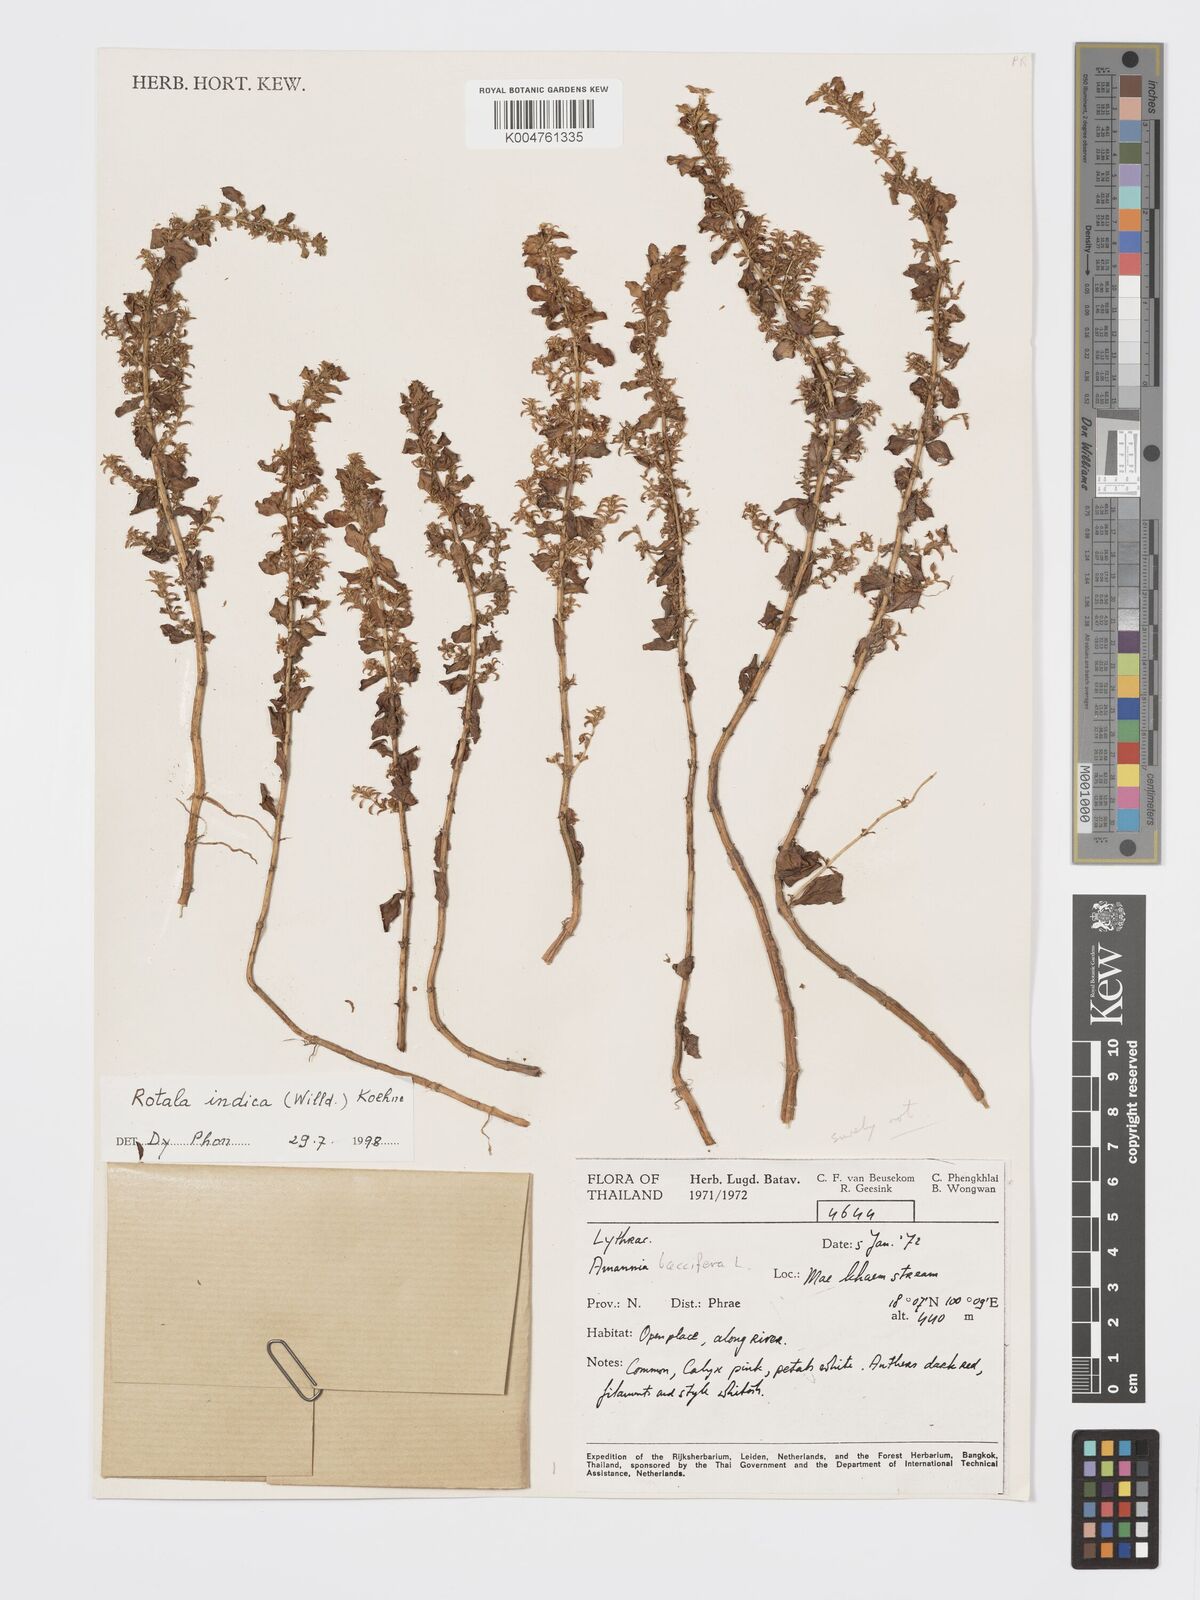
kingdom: Plantae
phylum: Tracheophyta
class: Magnoliopsida
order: Myrtales
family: Lythraceae
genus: Rotala
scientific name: Rotala indica
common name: Indian toothcup
